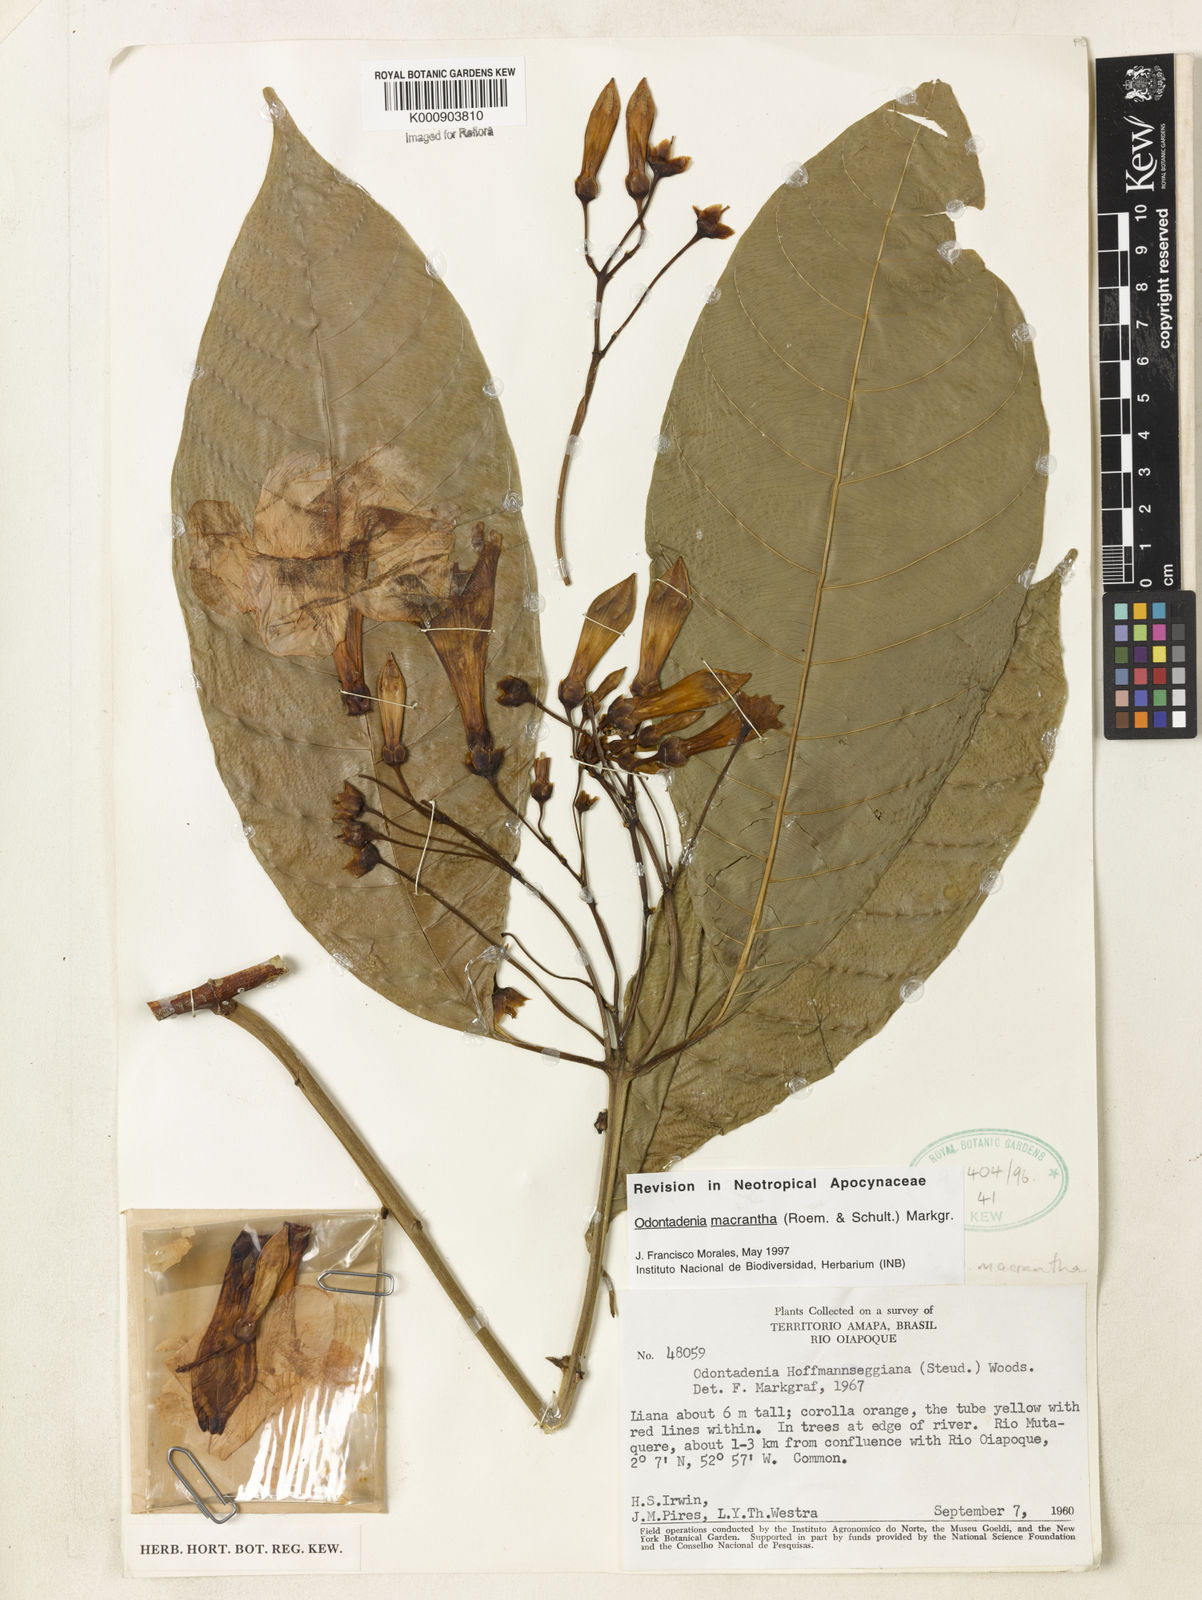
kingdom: Plantae
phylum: Tracheophyta
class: Magnoliopsida
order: Gentianales
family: Apocynaceae
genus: Odontadenia
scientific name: Odontadenia semidigyna
